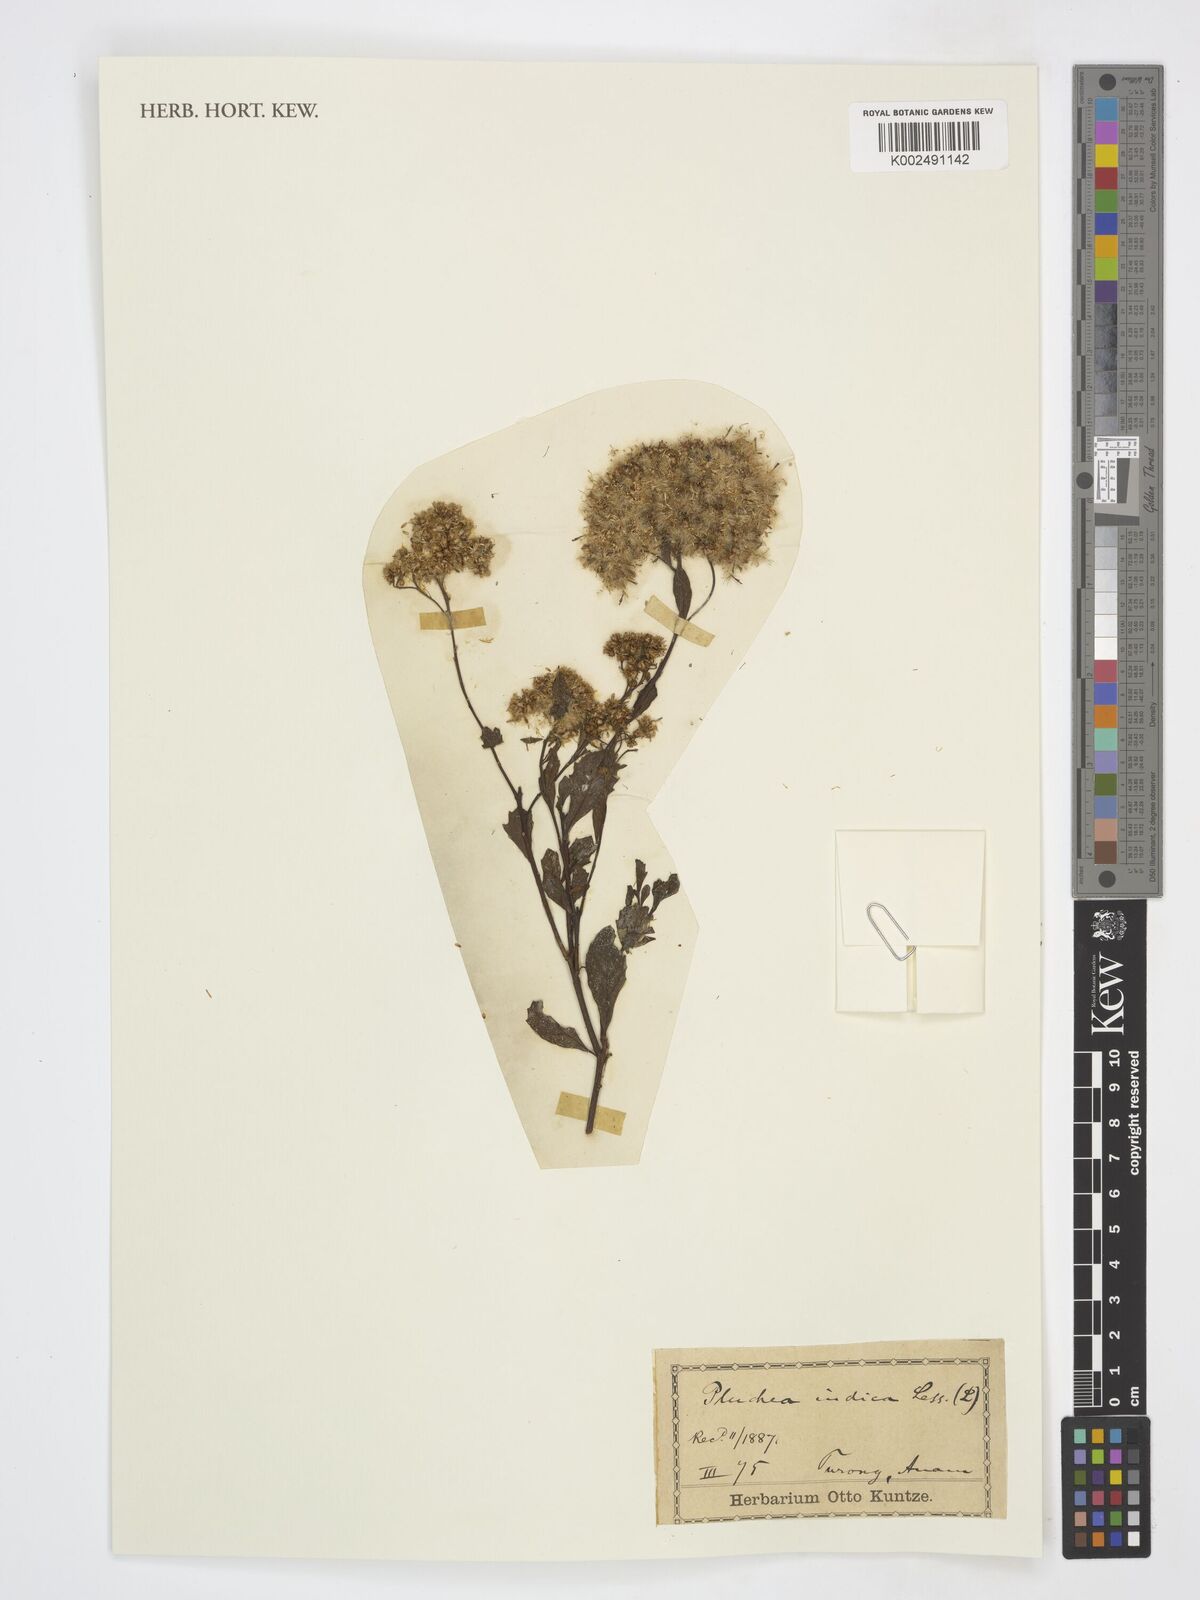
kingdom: Plantae
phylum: Tracheophyta
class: Magnoliopsida
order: Asterales
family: Asteraceae
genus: Pluchea
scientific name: Pluchea indica
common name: Indian fleabane
